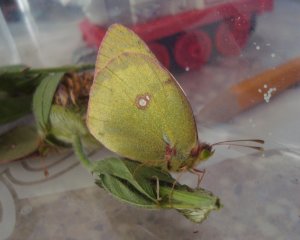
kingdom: Animalia
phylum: Arthropoda
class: Insecta
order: Lepidoptera
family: Pieridae
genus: Colias
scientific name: Colias philodice
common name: Clouded Sulphur
